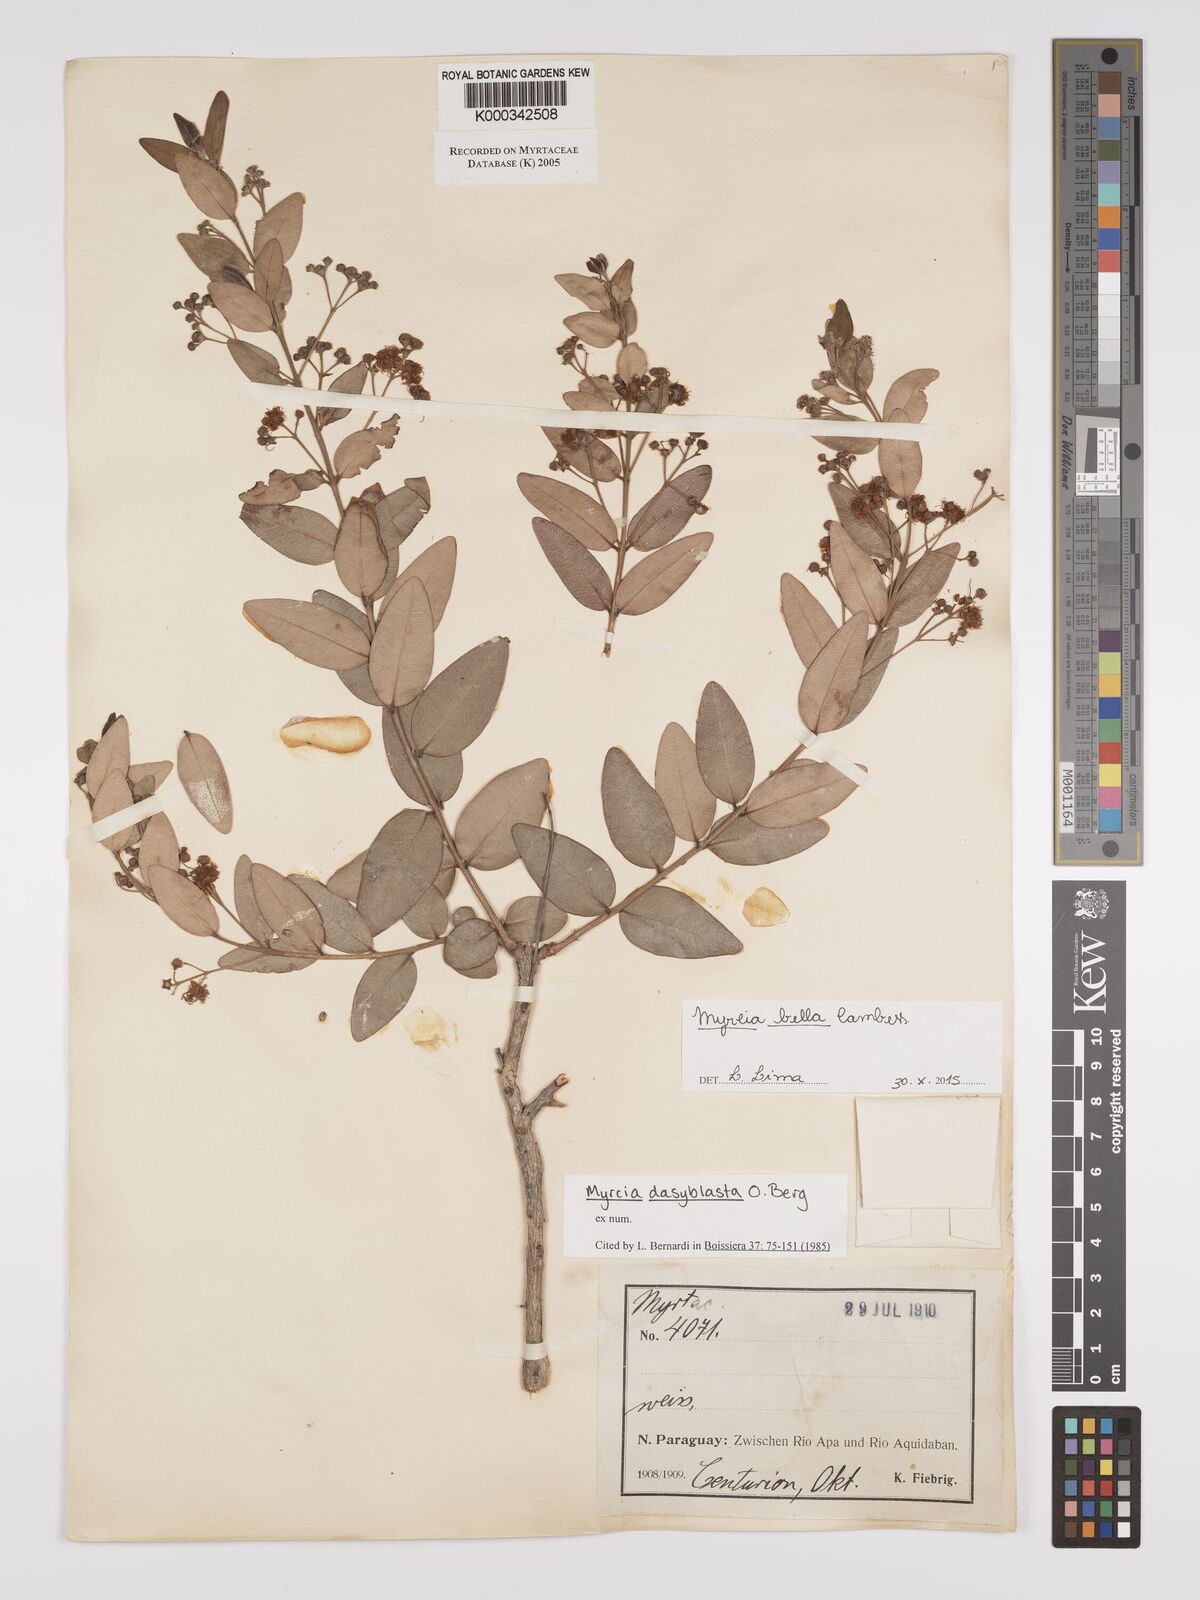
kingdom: Plantae
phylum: Tracheophyta
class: Magnoliopsida
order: Myrtales
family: Myrtaceae
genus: Myrcia
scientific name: Myrcia dasyblasta
